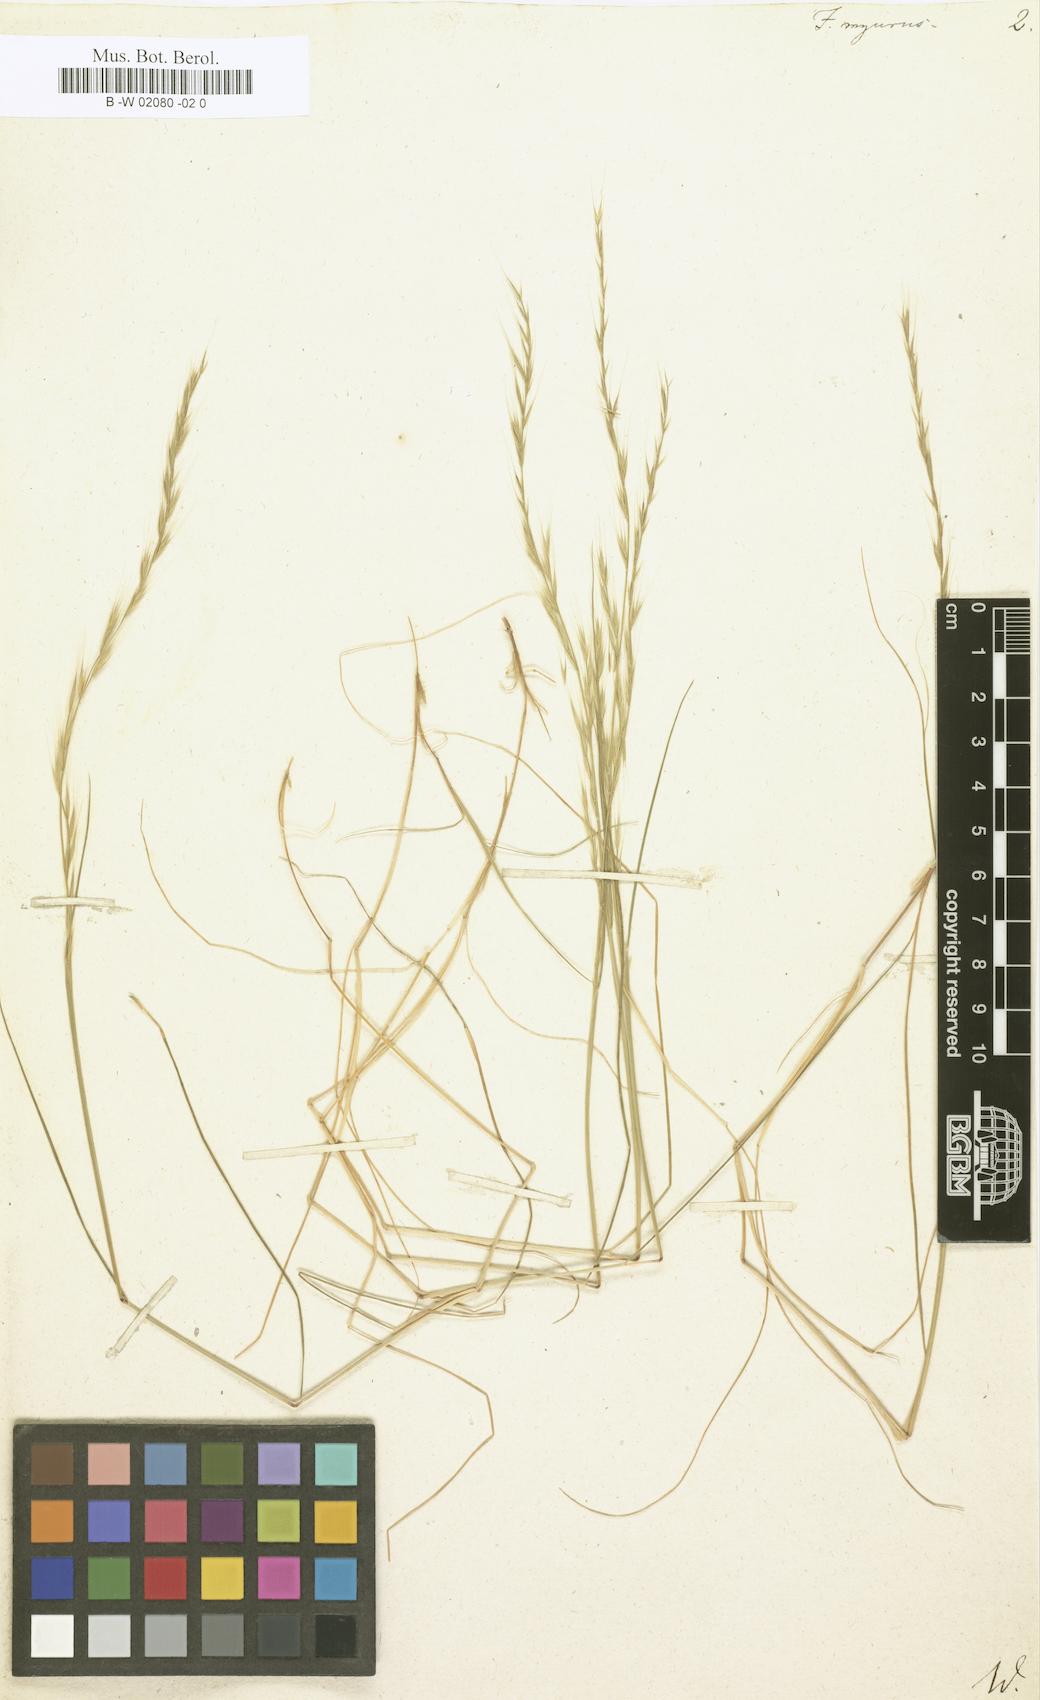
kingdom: Plantae
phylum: Tracheophyta
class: Liliopsida
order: Poales
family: Poaceae
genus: Festuca
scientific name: Festuca myurus
